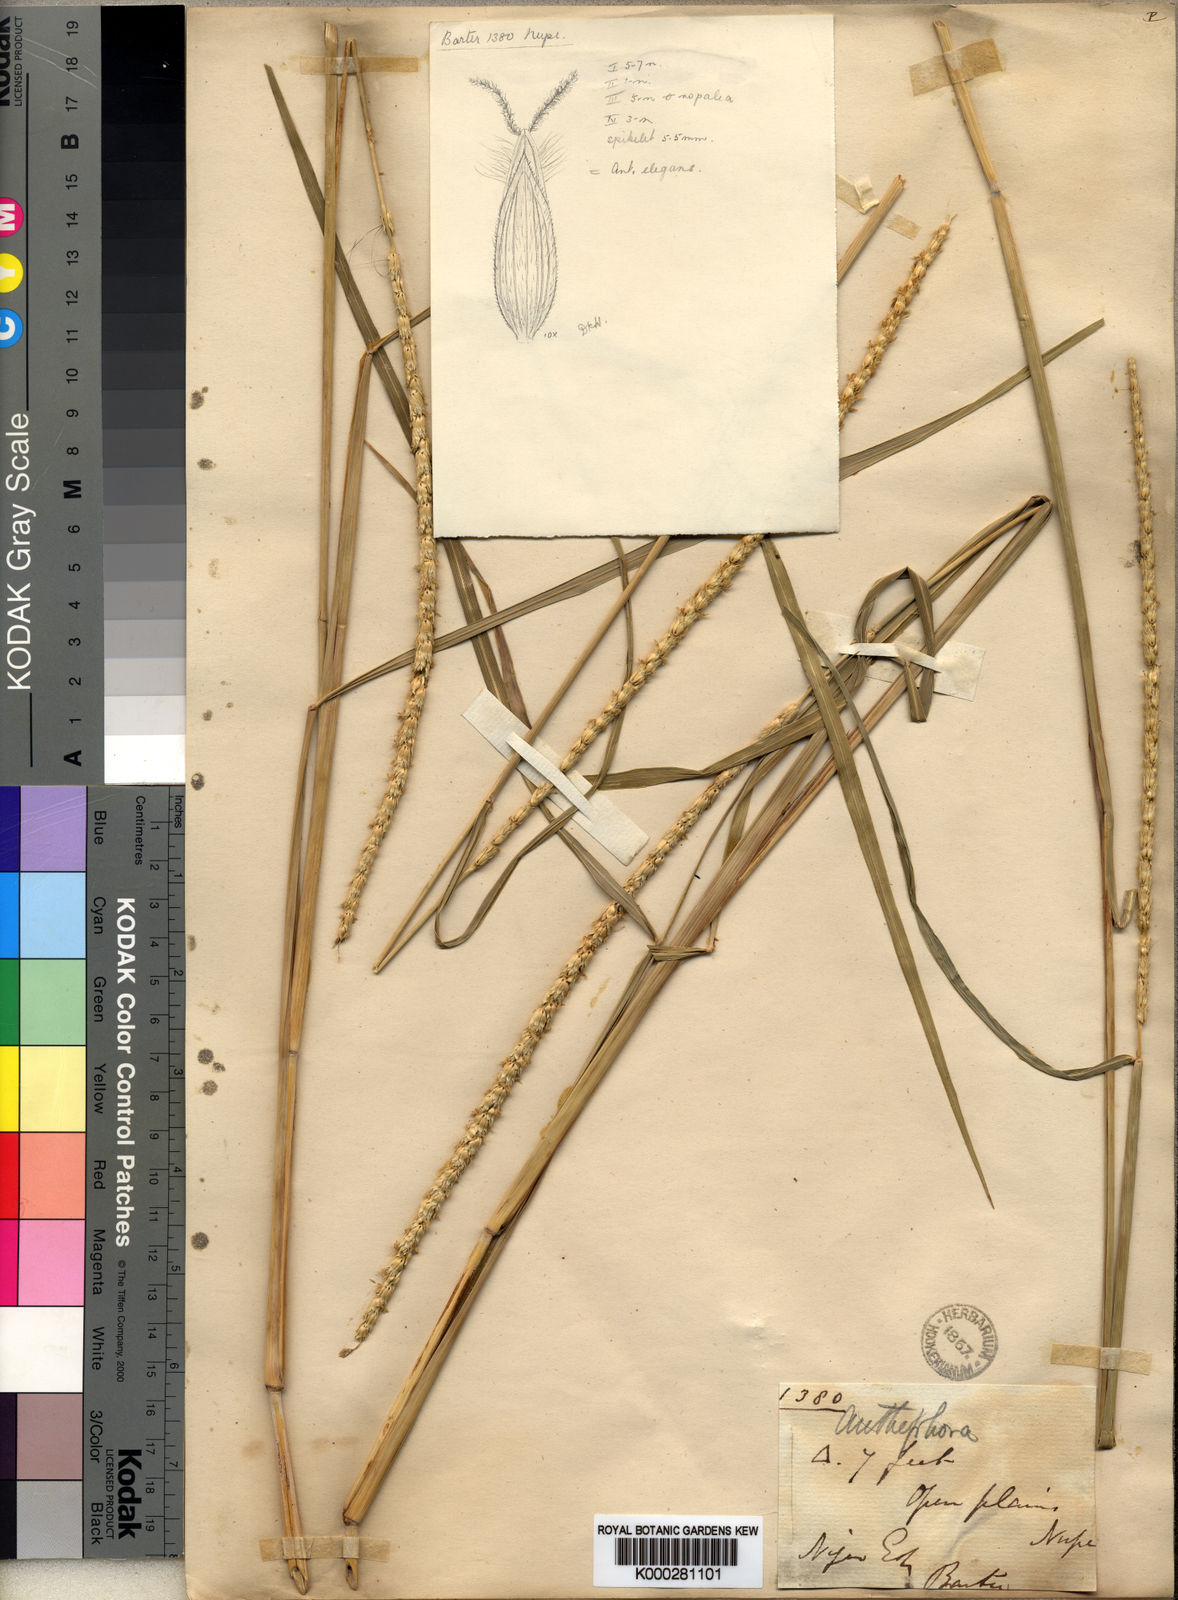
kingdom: Plantae
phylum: Tracheophyta
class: Liliopsida
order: Poales
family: Poaceae
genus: Anthephora
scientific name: Anthephora nigritana
